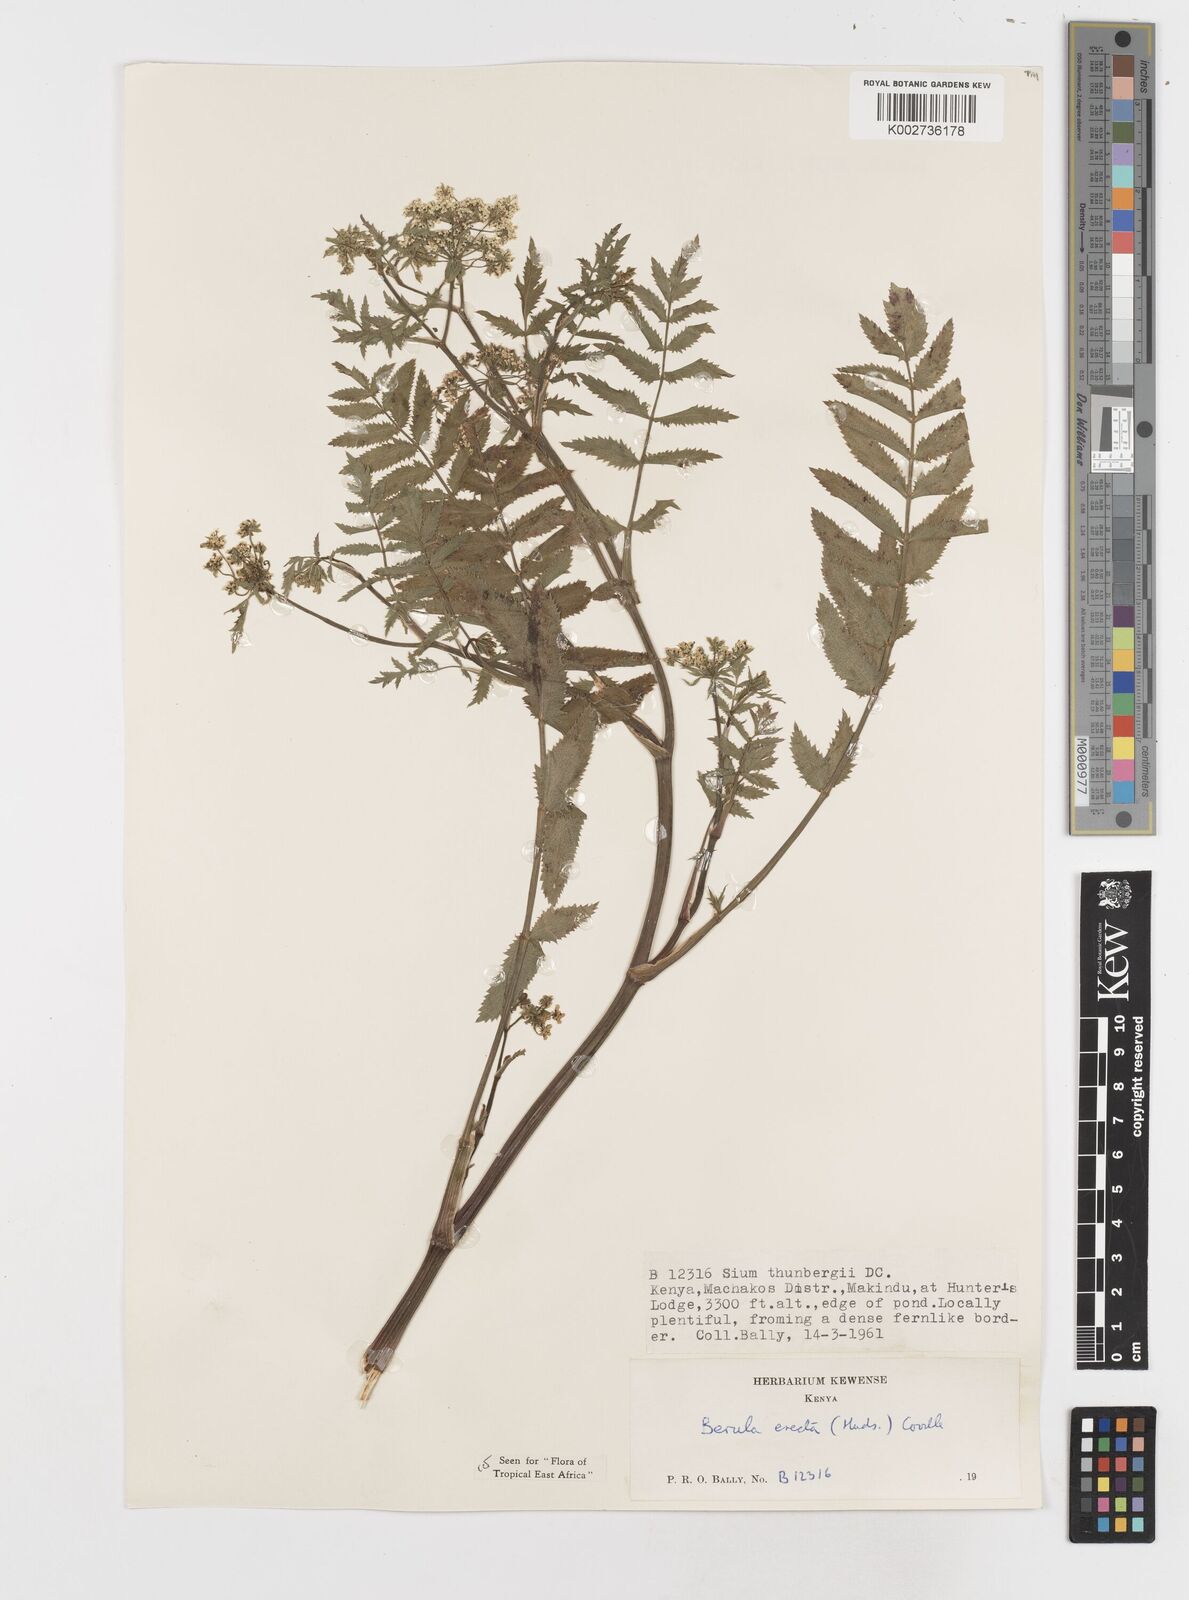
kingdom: Plantae
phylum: Tracheophyta
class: Magnoliopsida
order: Apiales
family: Apiaceae
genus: Berula
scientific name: Berula erecta
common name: Lesser water-parsnip
